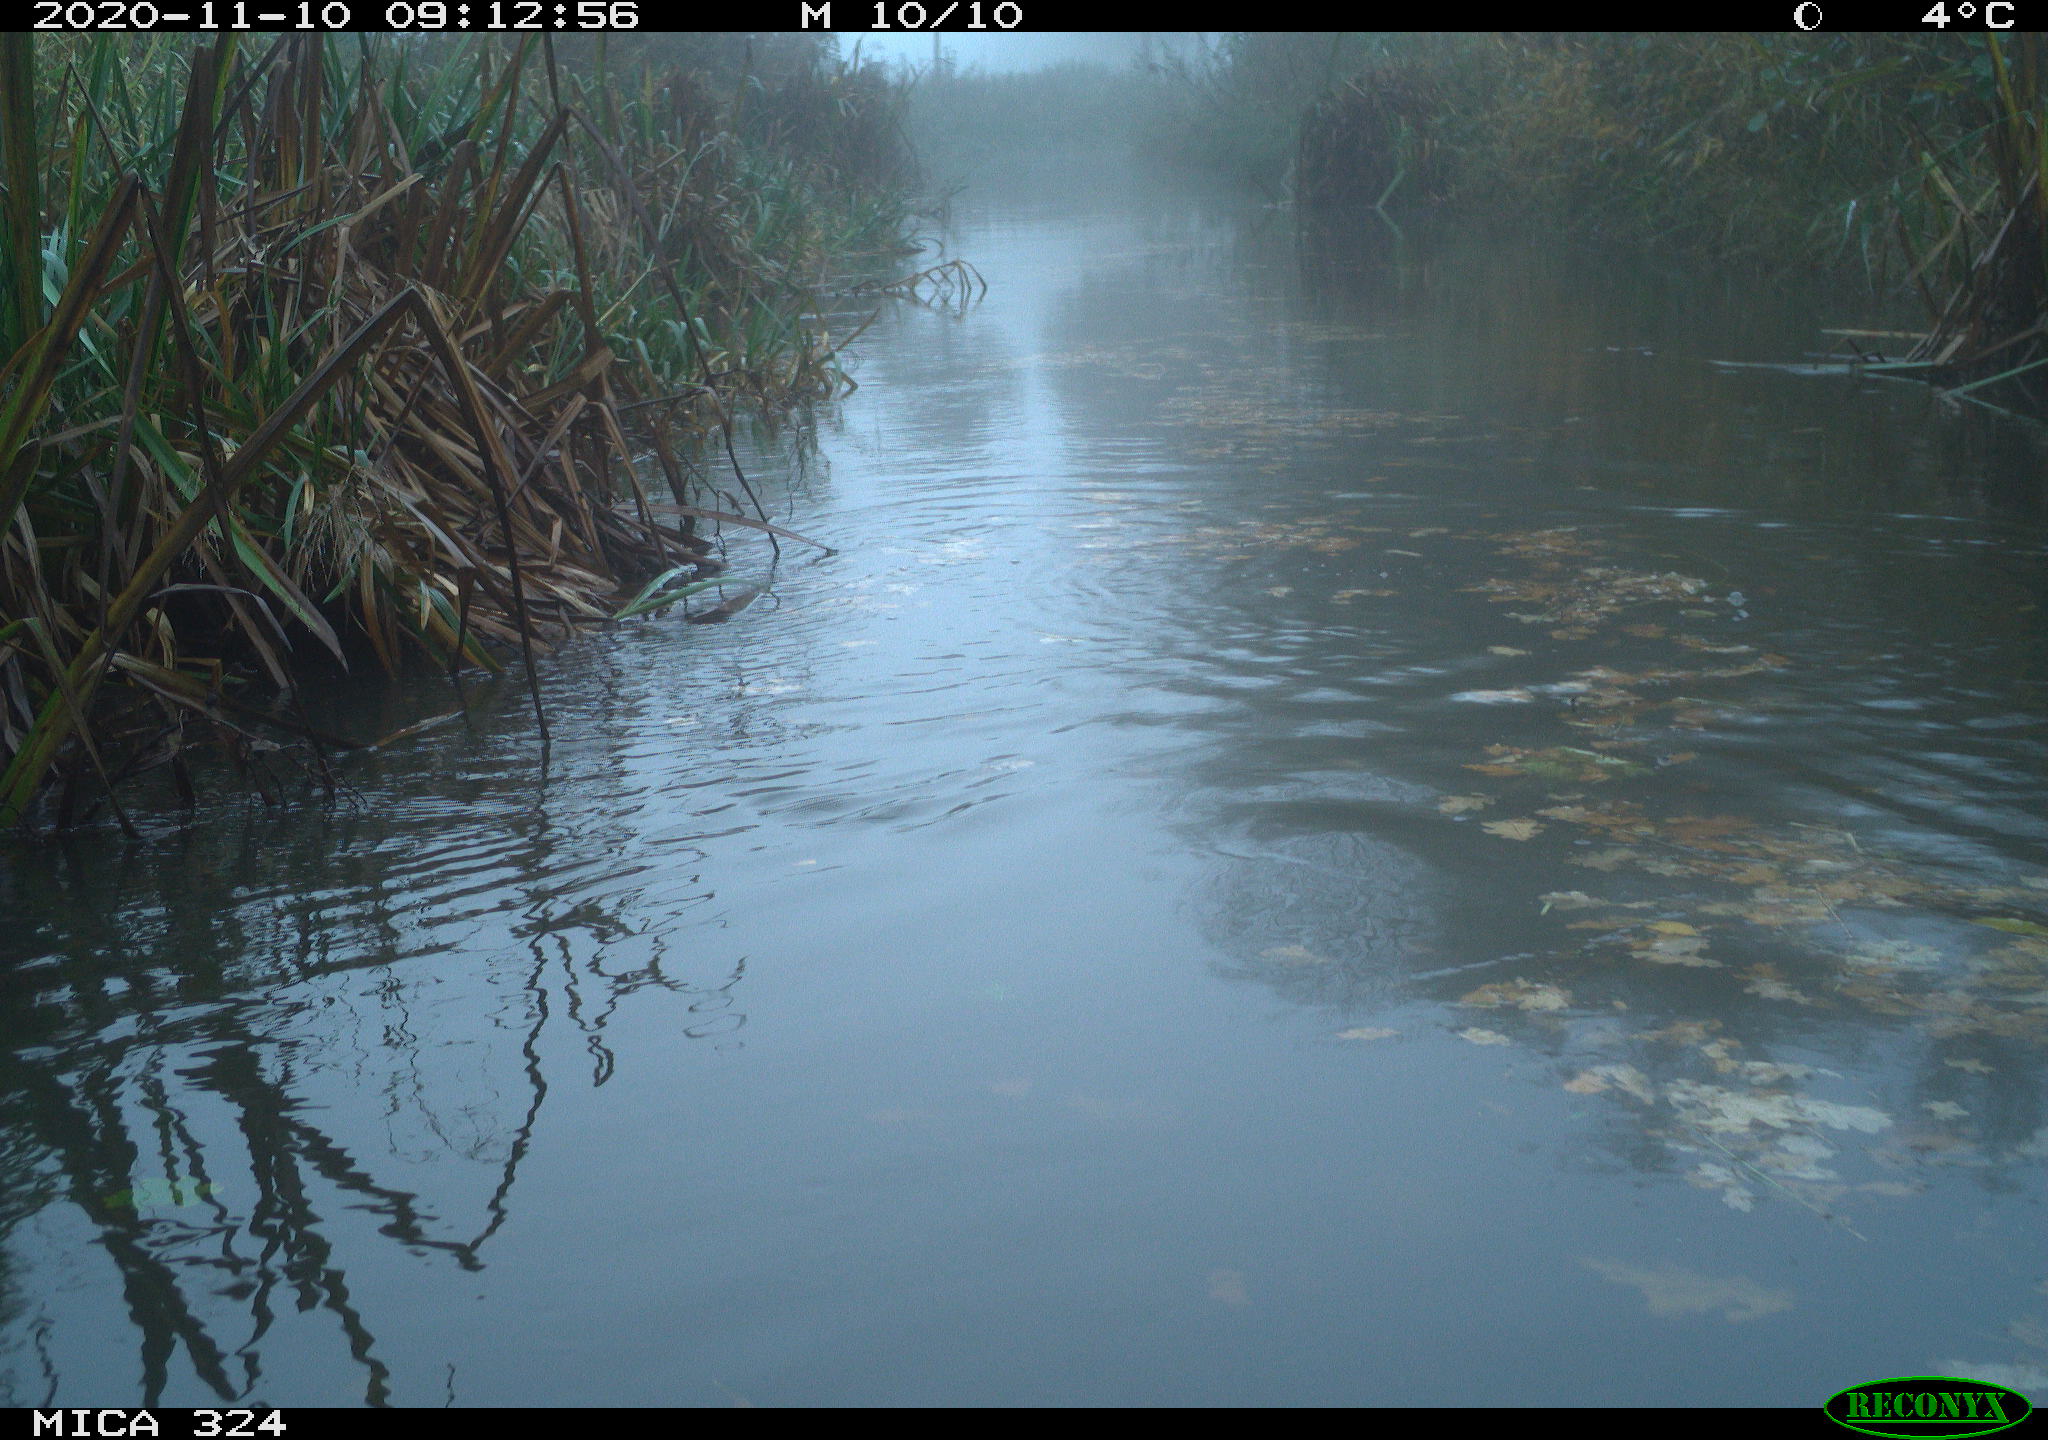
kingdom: Animalia
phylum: Chordata
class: Aves
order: Gruiformes
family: Rallidae
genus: Gallinula
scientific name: Gallinula chloropus
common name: Common moorhen
